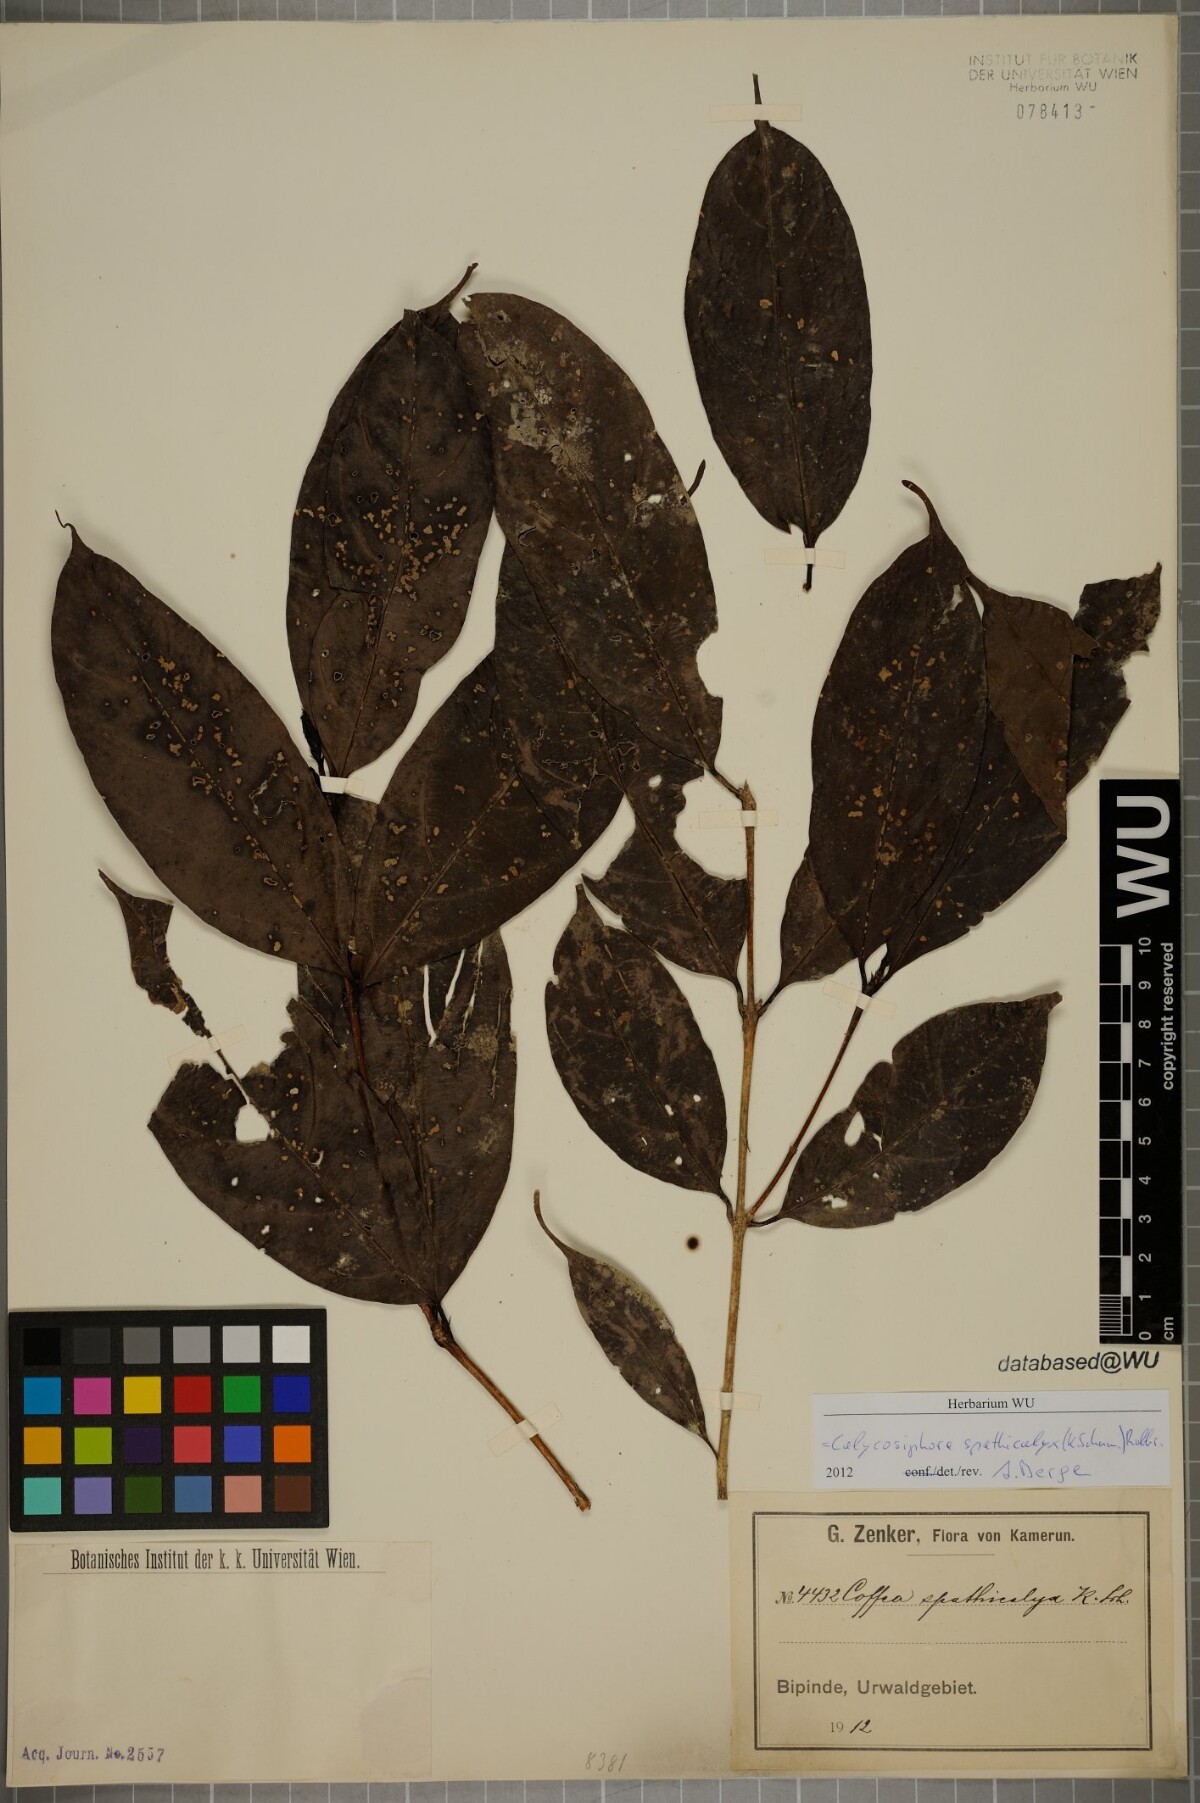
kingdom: Plantae
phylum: Tracheophyta
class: Magnoliopsida
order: Gentianales
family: Rubiaceae
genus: Calycosiphonia
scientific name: Calycosiphonia spathicalyx
